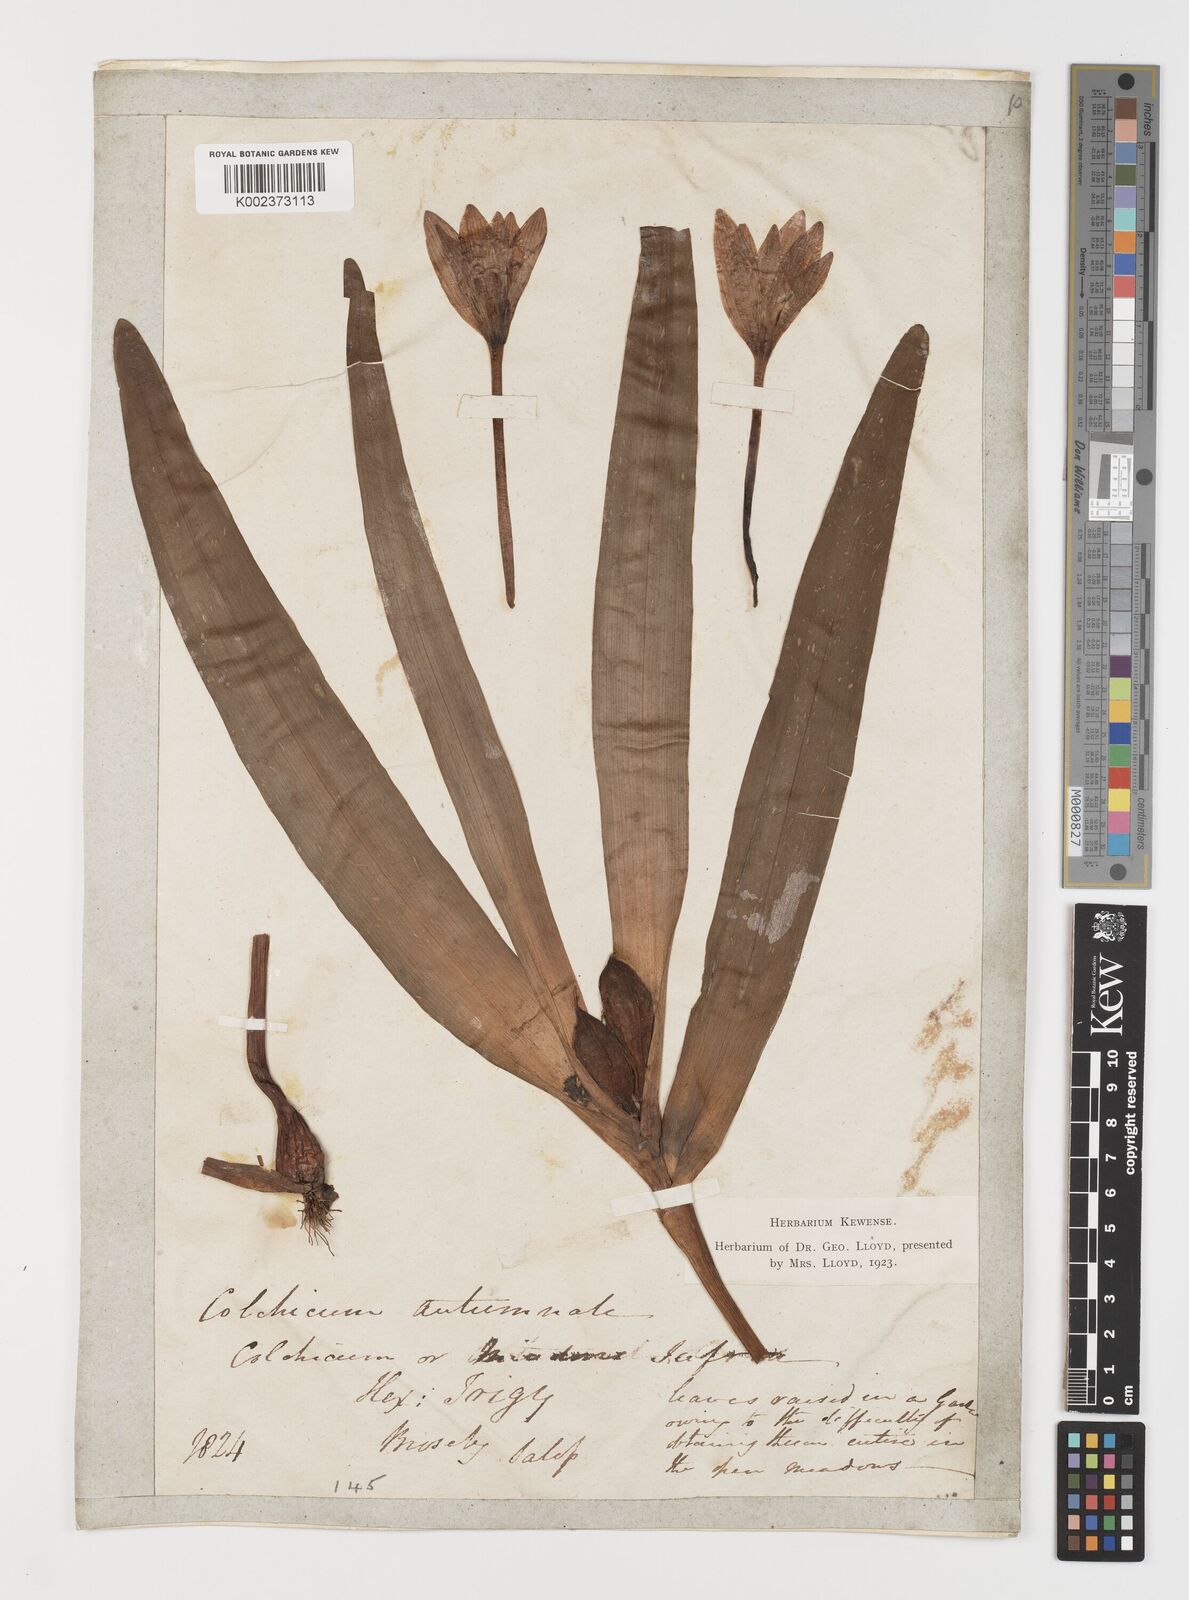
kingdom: Plantae
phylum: Tracheophyta
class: Liliopsida
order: Liliales
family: Colchicaceae
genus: Colchicum
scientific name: Colchicum autumnale
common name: Autumn crocus
